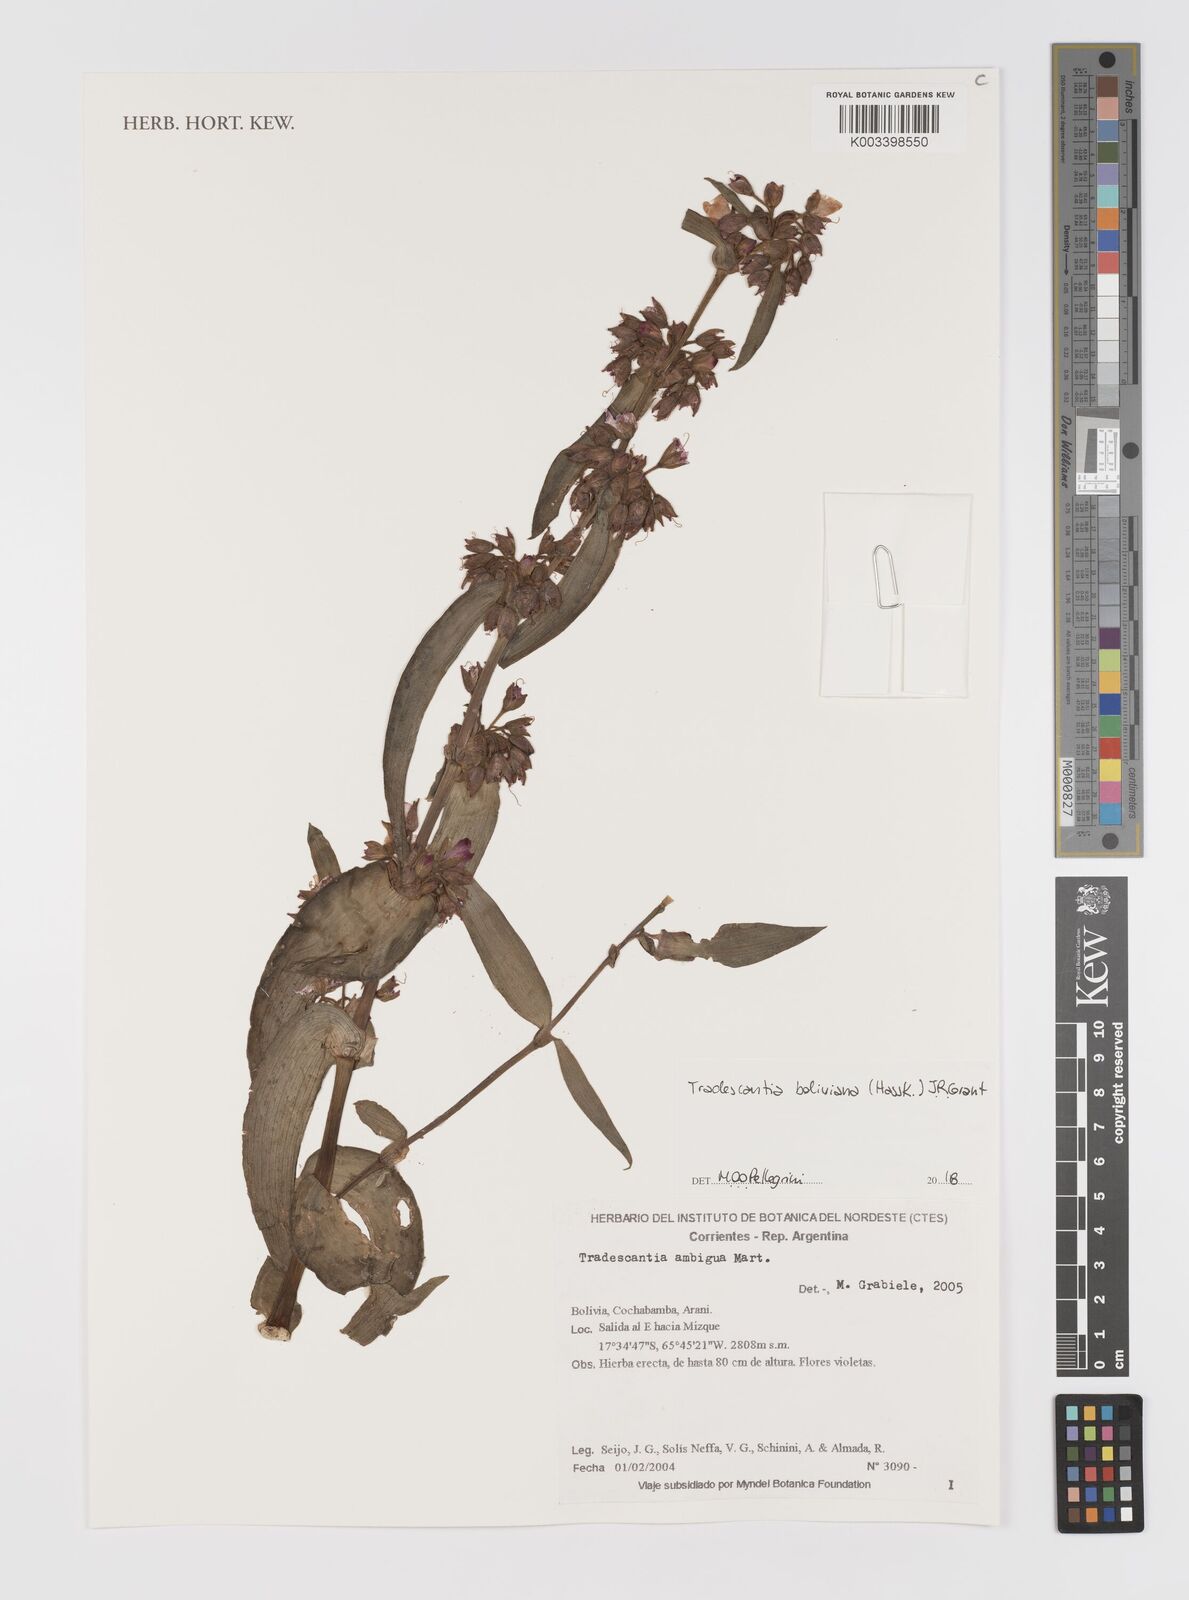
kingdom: Plantae
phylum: Tracheophyta
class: Liliopsida
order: Commelinales
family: Commelinaceae
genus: Tradescantia
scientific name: Tradescantia boliviana
